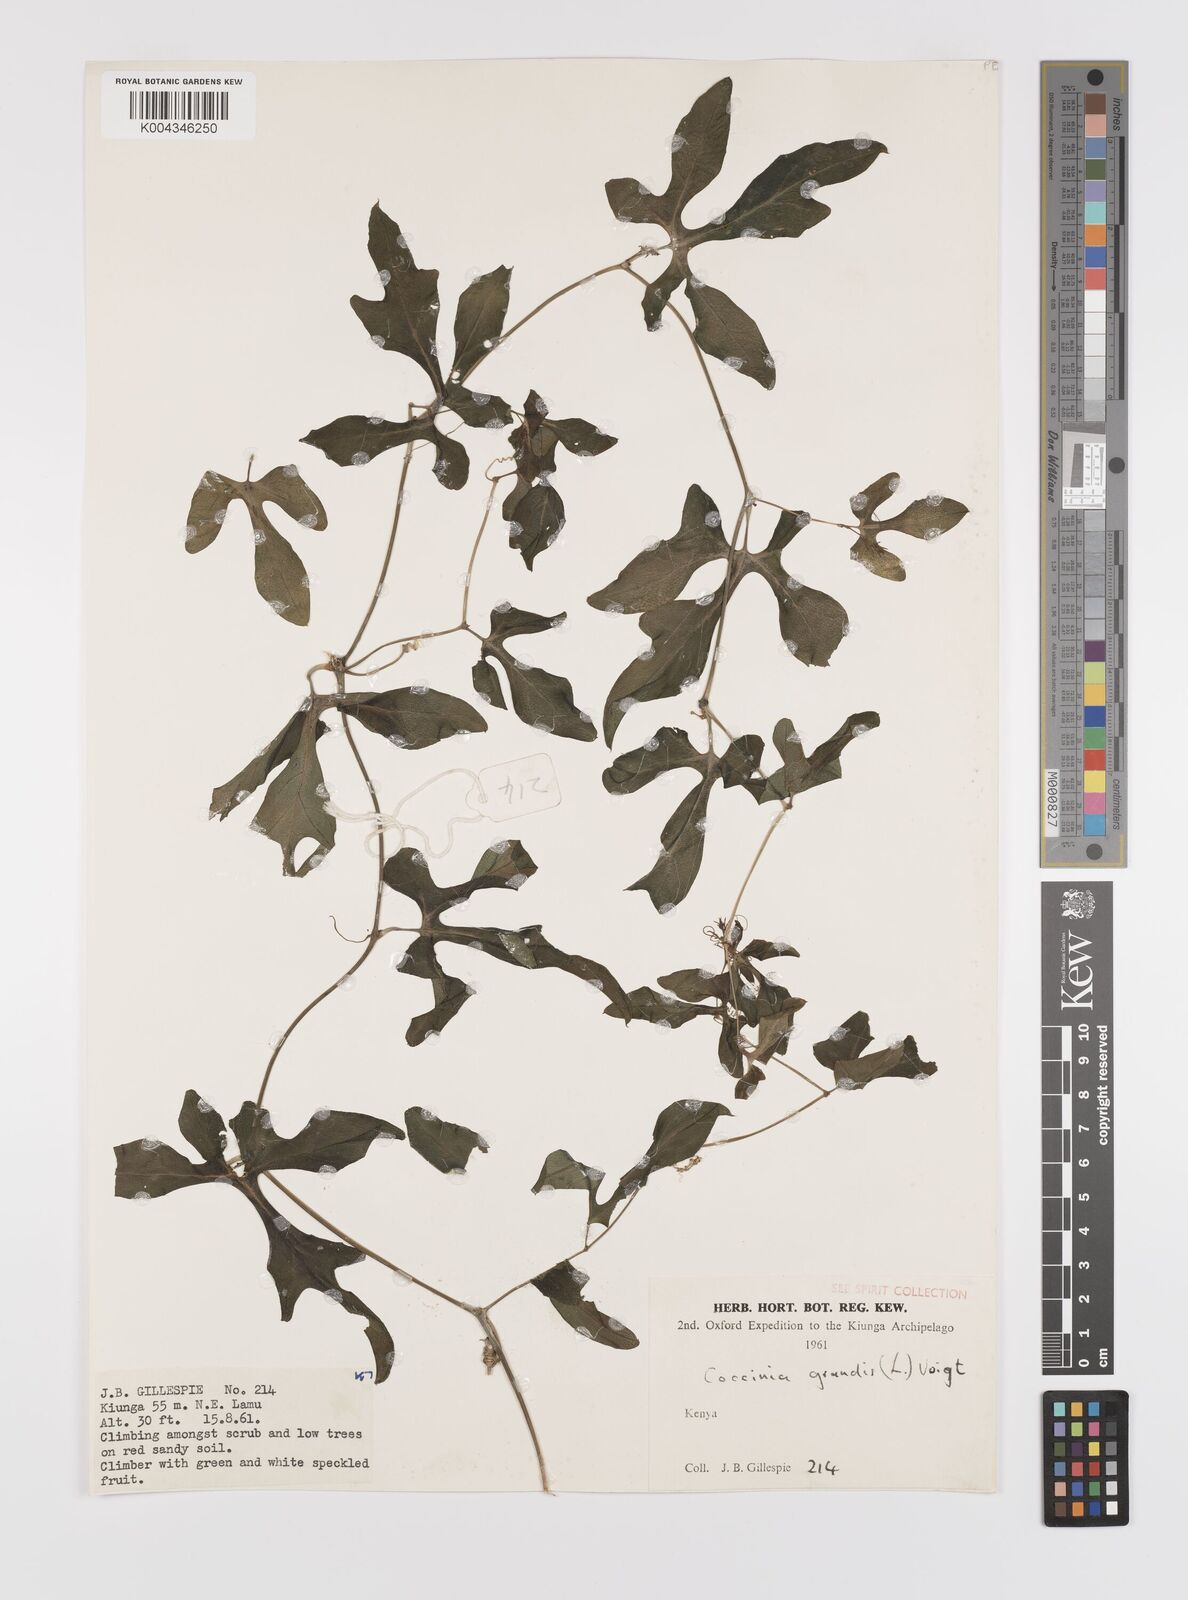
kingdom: Plantae
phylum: Tracheophyta
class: Magnoliopsida
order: Cucurbitales
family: Cucurbitaceae
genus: Coccinia
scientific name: Coccinia grandis
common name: Ivy gourd
